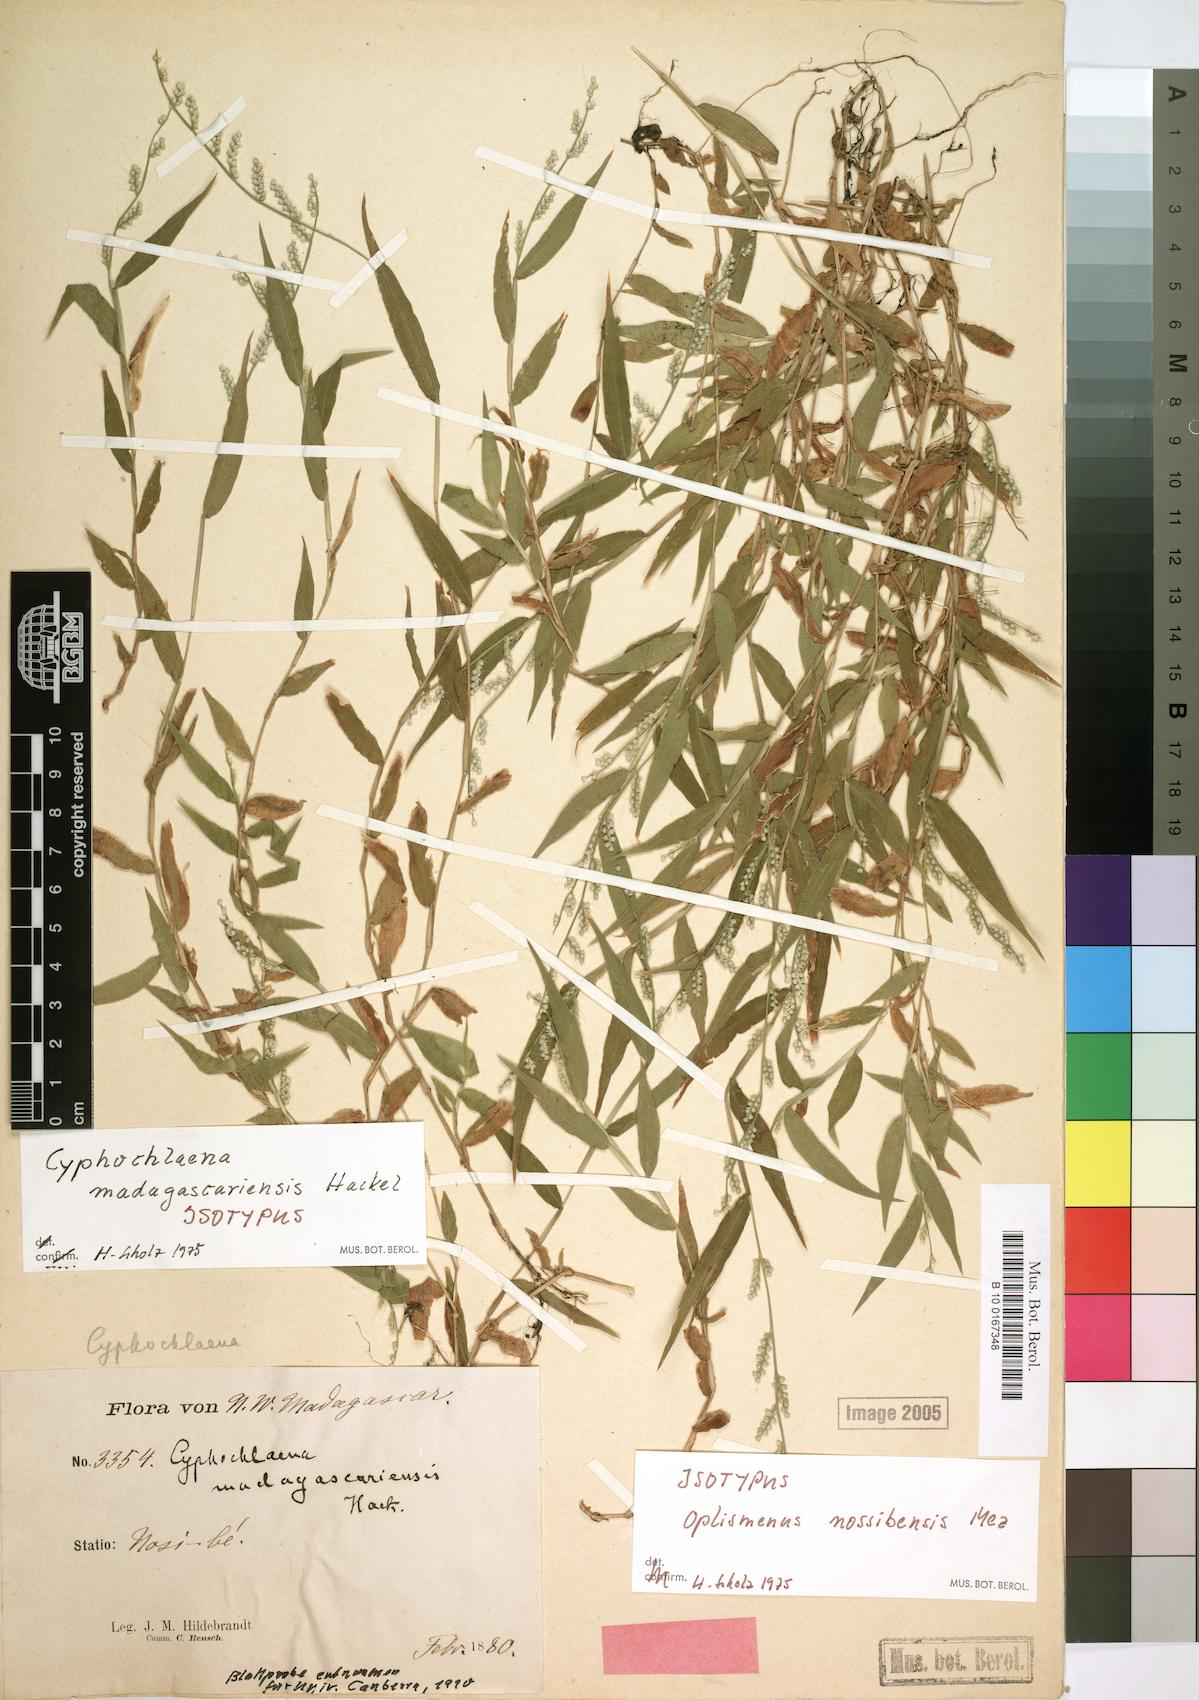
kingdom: Plantae
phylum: Tracheophyta
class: Liliopsida
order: Poales
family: Poaceae
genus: Cyphochlaena
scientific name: Cyphochlaena madagascariensis
